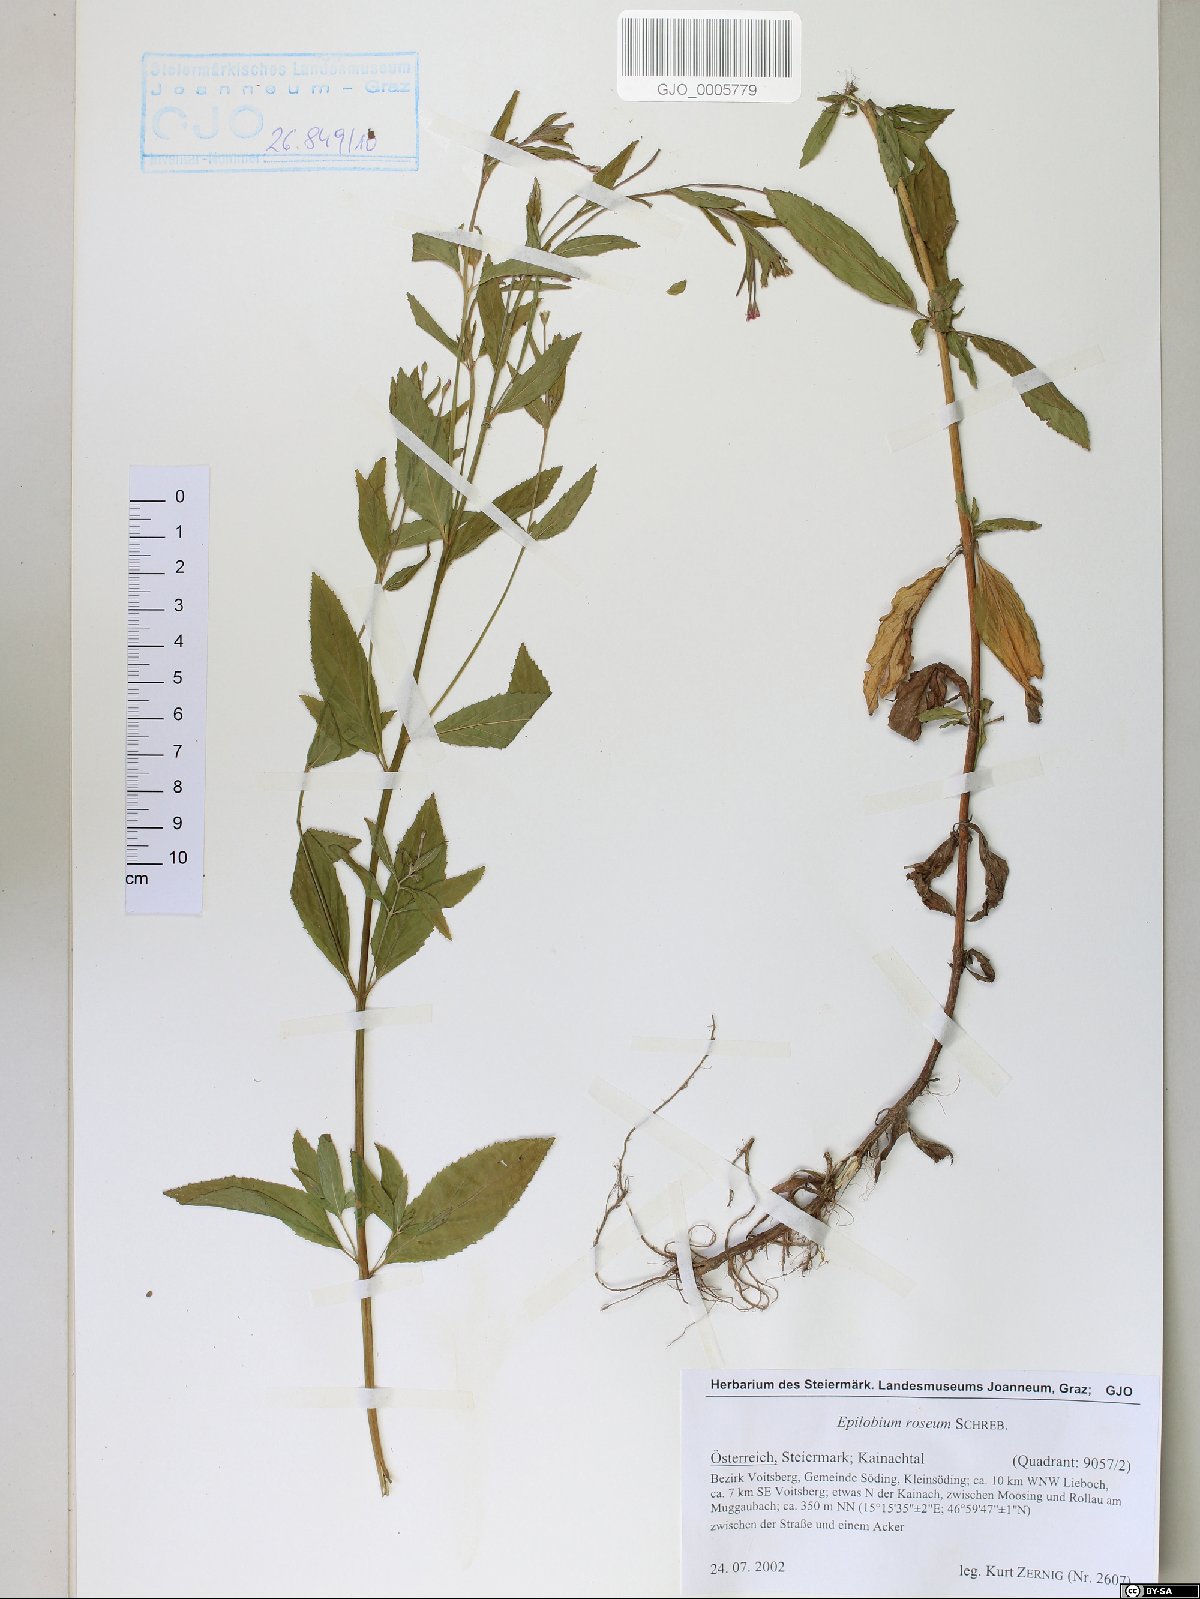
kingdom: Plantae
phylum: Tracheophyta
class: Magnoliopsida
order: Myrtales
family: Onagraceae
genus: Epilobium
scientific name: Epilobium roseum
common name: Pale willowherb
